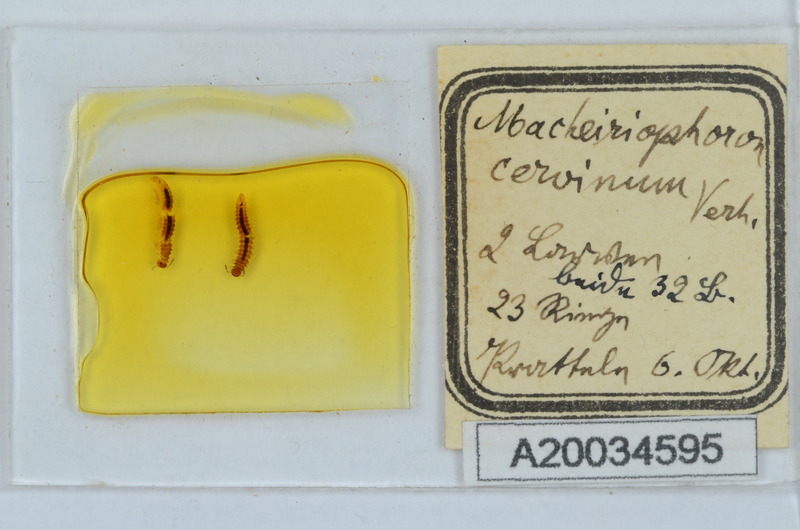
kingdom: Animalia
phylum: Arthropoda
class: Diplopoda
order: Chordeumatida
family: Craspedosomatidae
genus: Rhymogona
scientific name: Rhymogona montivaga
